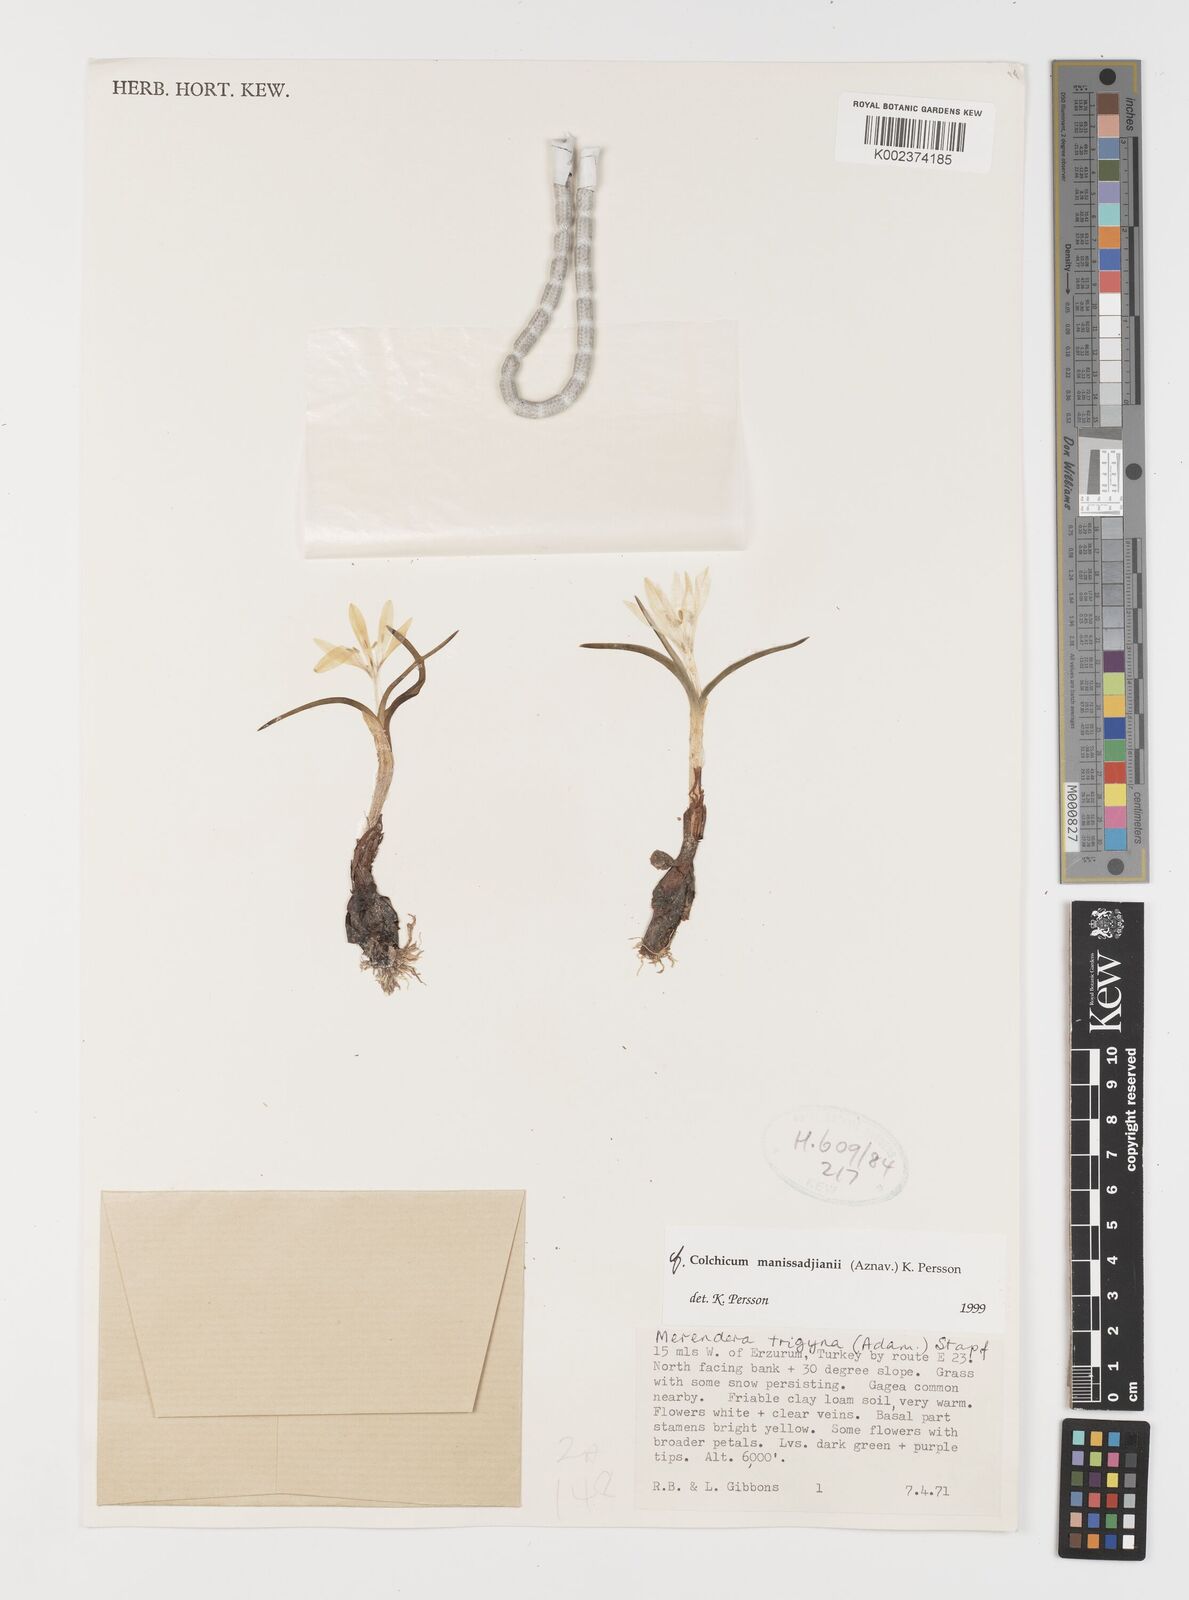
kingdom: Plantae
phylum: Tracheophyta
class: Liliopsida
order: Liliales
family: Colchicaceae
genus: Colchicum
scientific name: Colchicum manissadjianii
